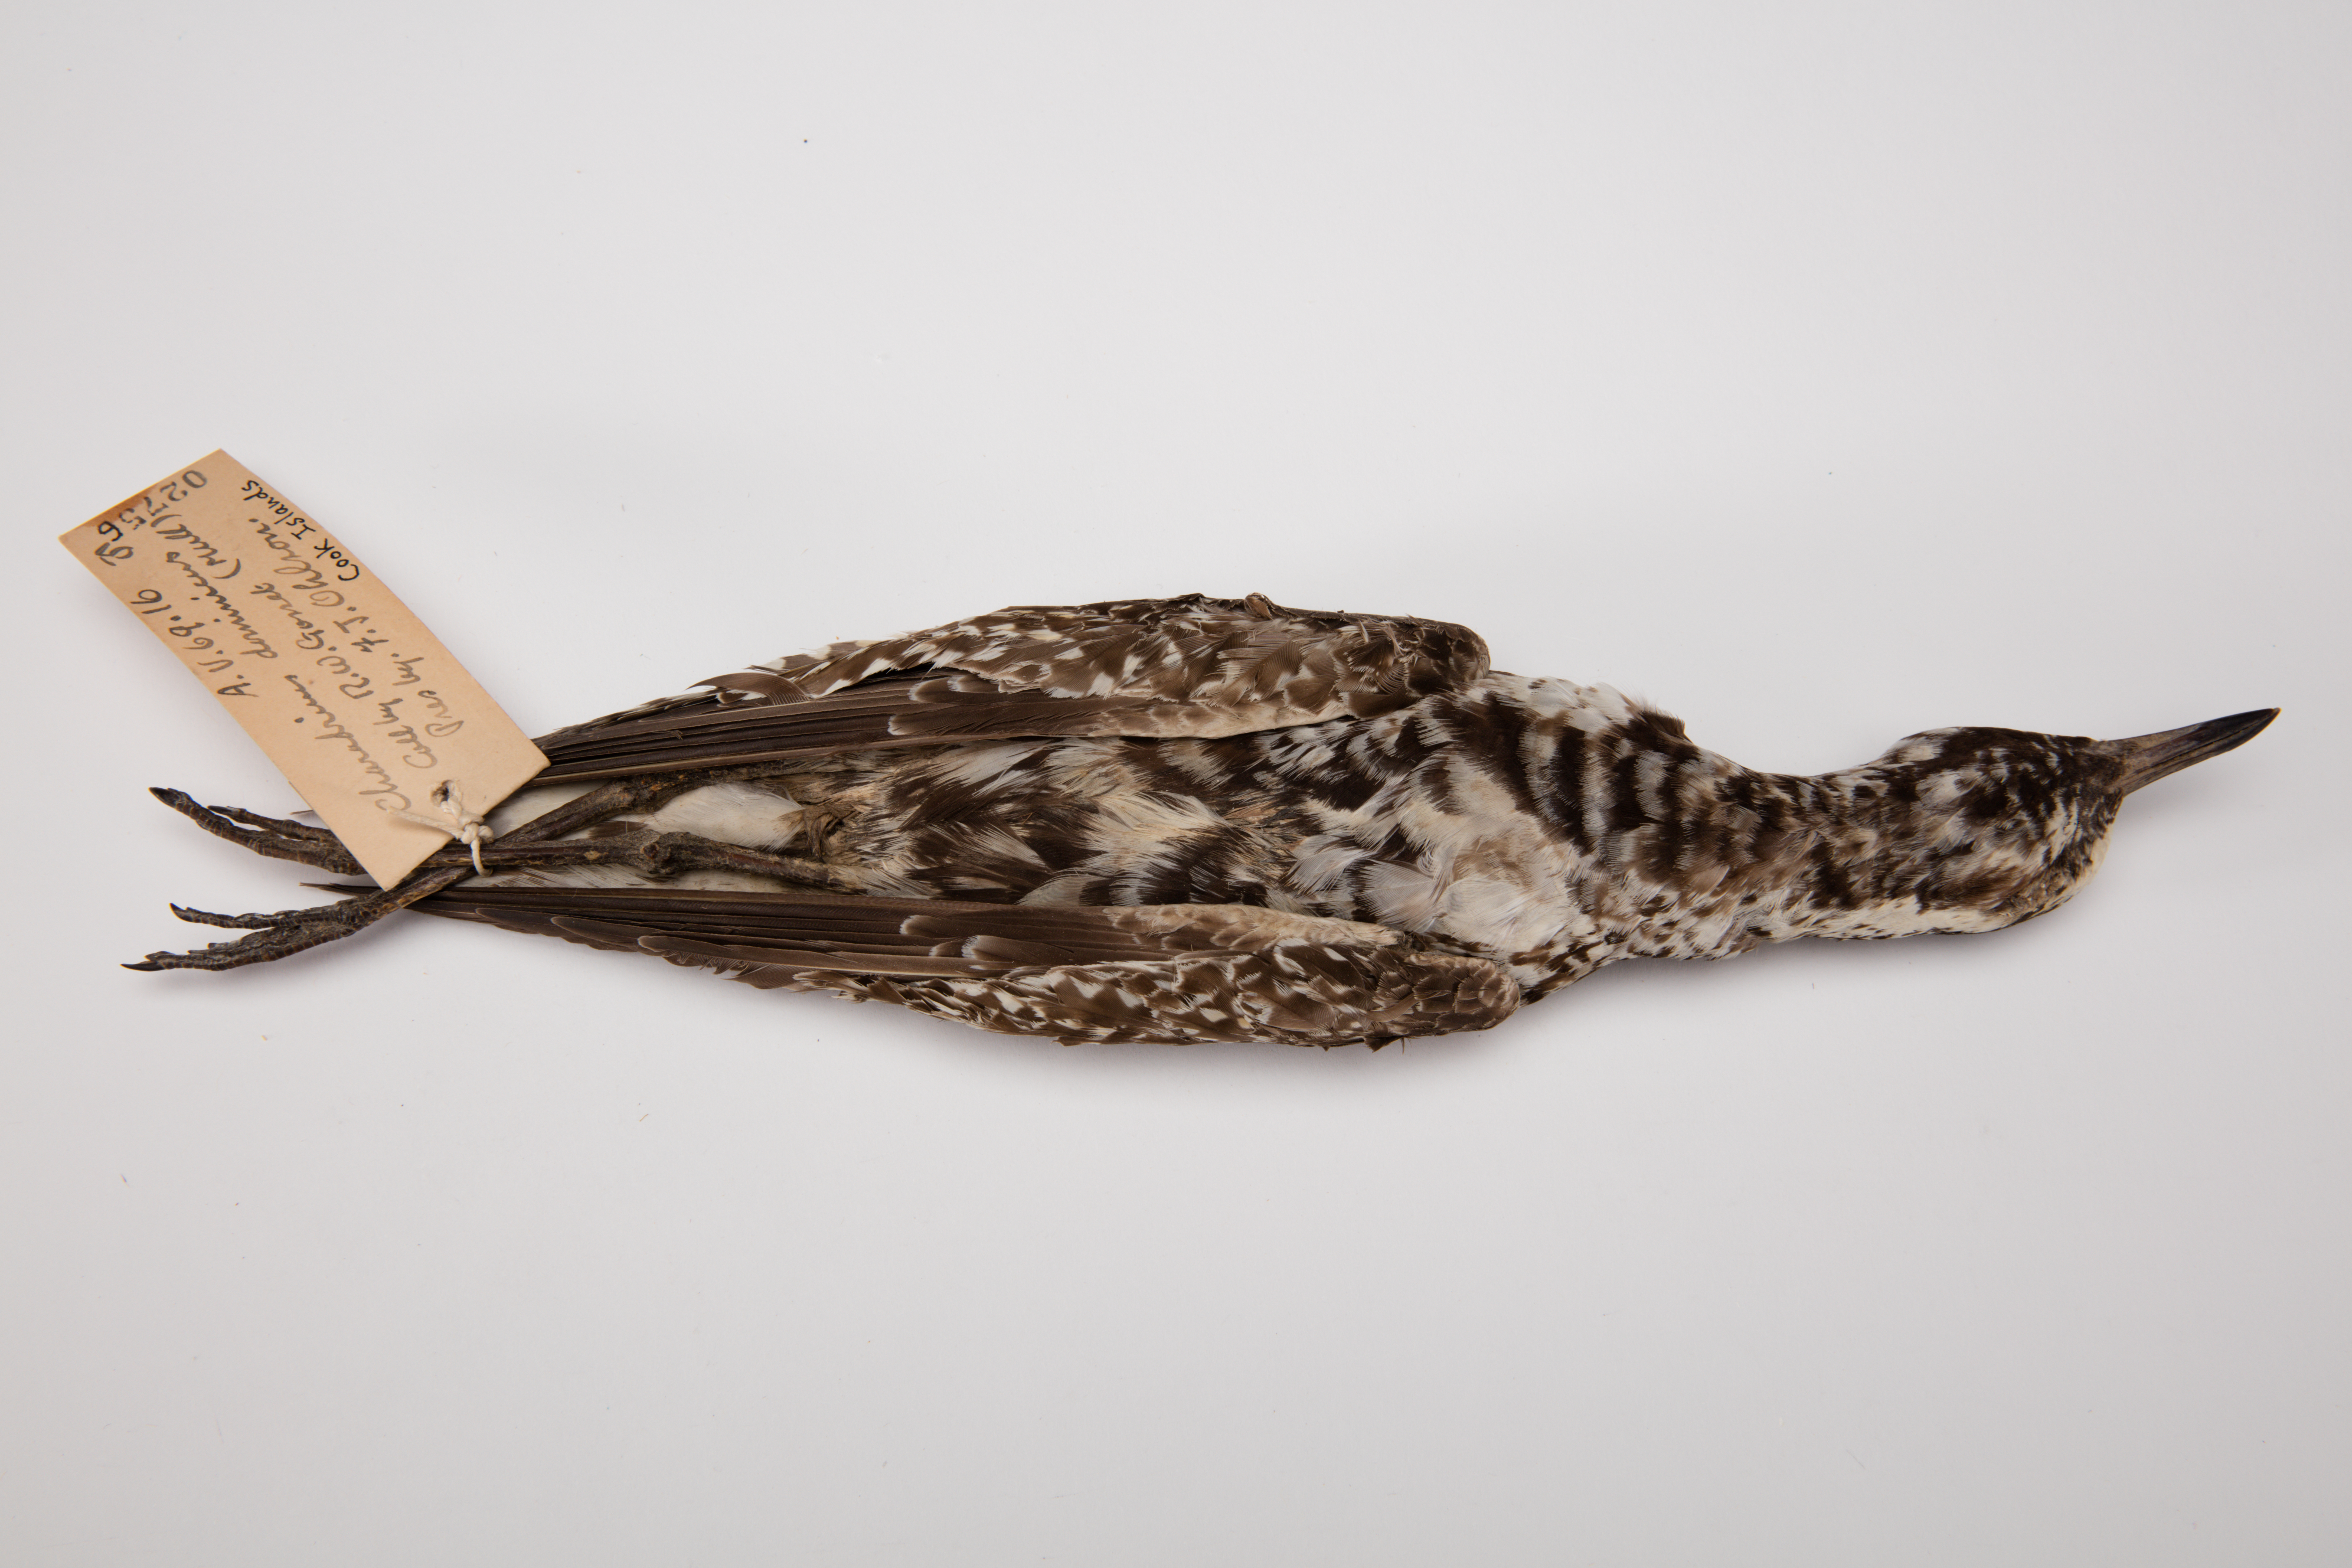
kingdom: Animalia
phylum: Chordata
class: Aves
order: Charadriiformes
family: Charadriidae
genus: Pluvialis
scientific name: Pluvialis fulva
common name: Pacific golden plover
